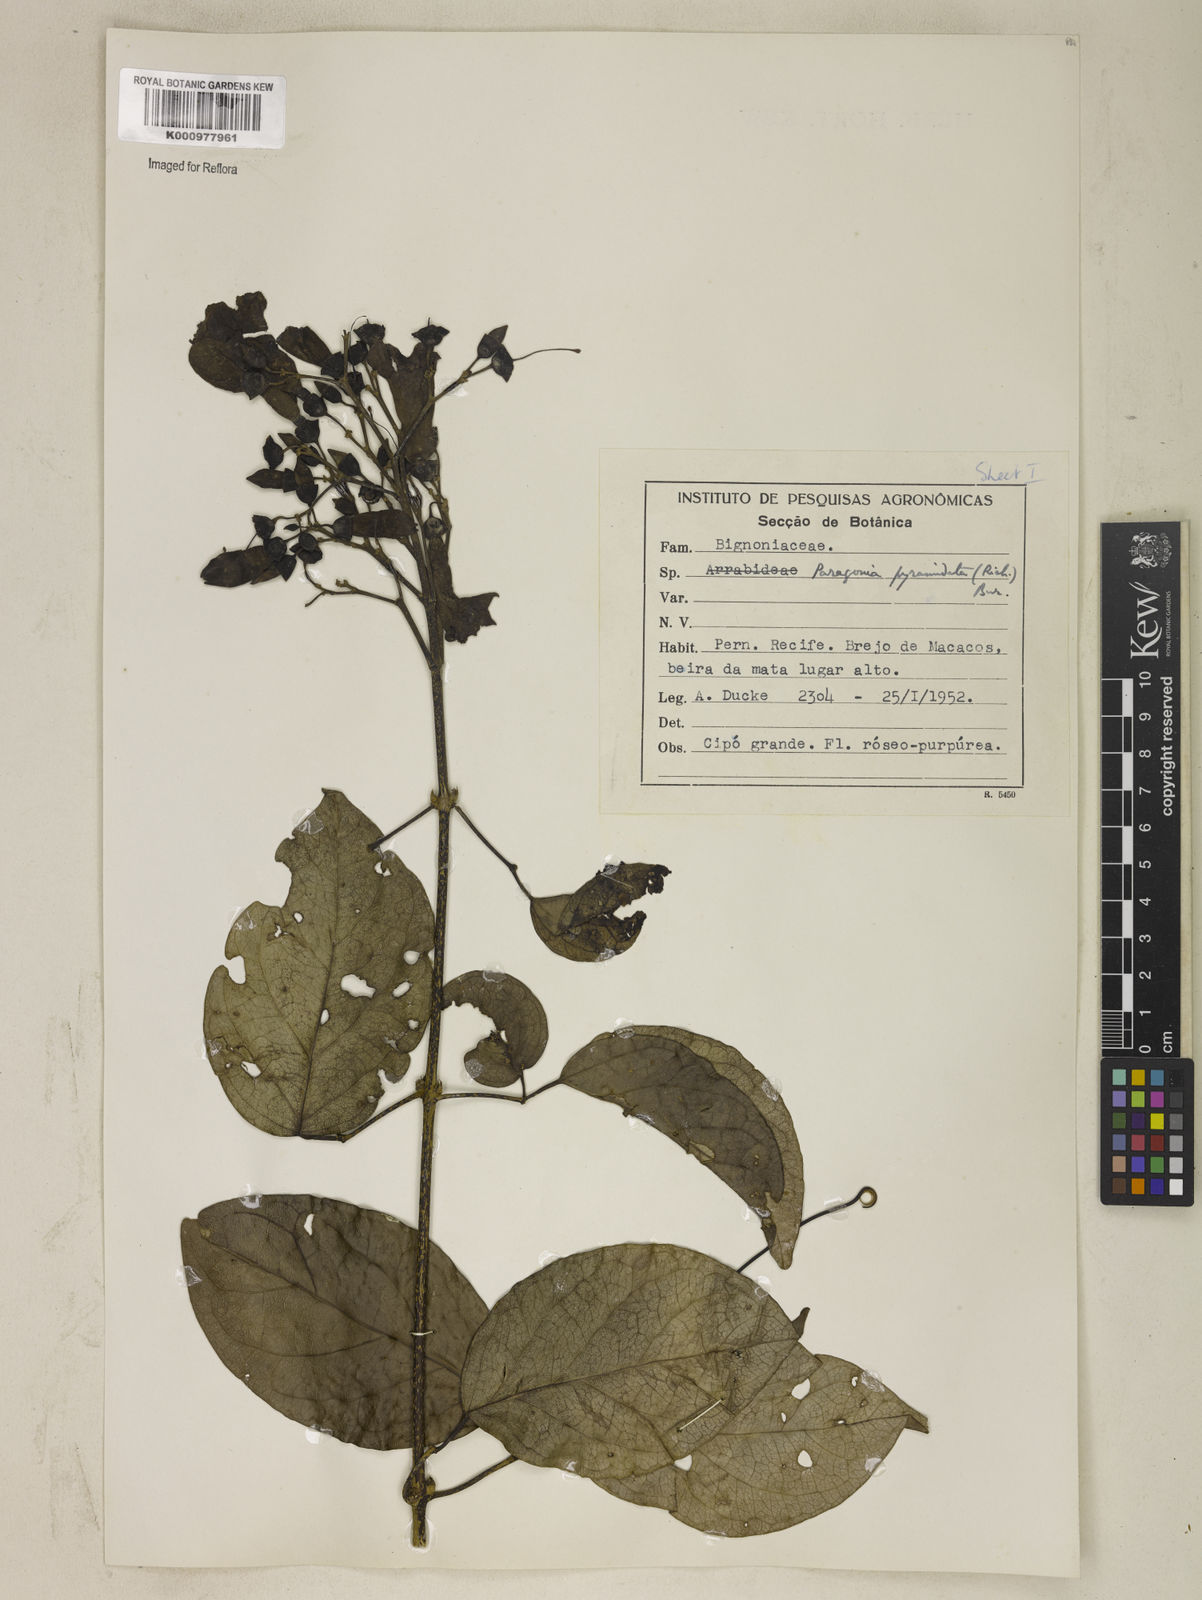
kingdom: Plantae
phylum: Tracheophyta
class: Magnoliopsida
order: Lamiales
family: Bignoniaceae
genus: Tanaecium
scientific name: Tanaecium pyramidatum
